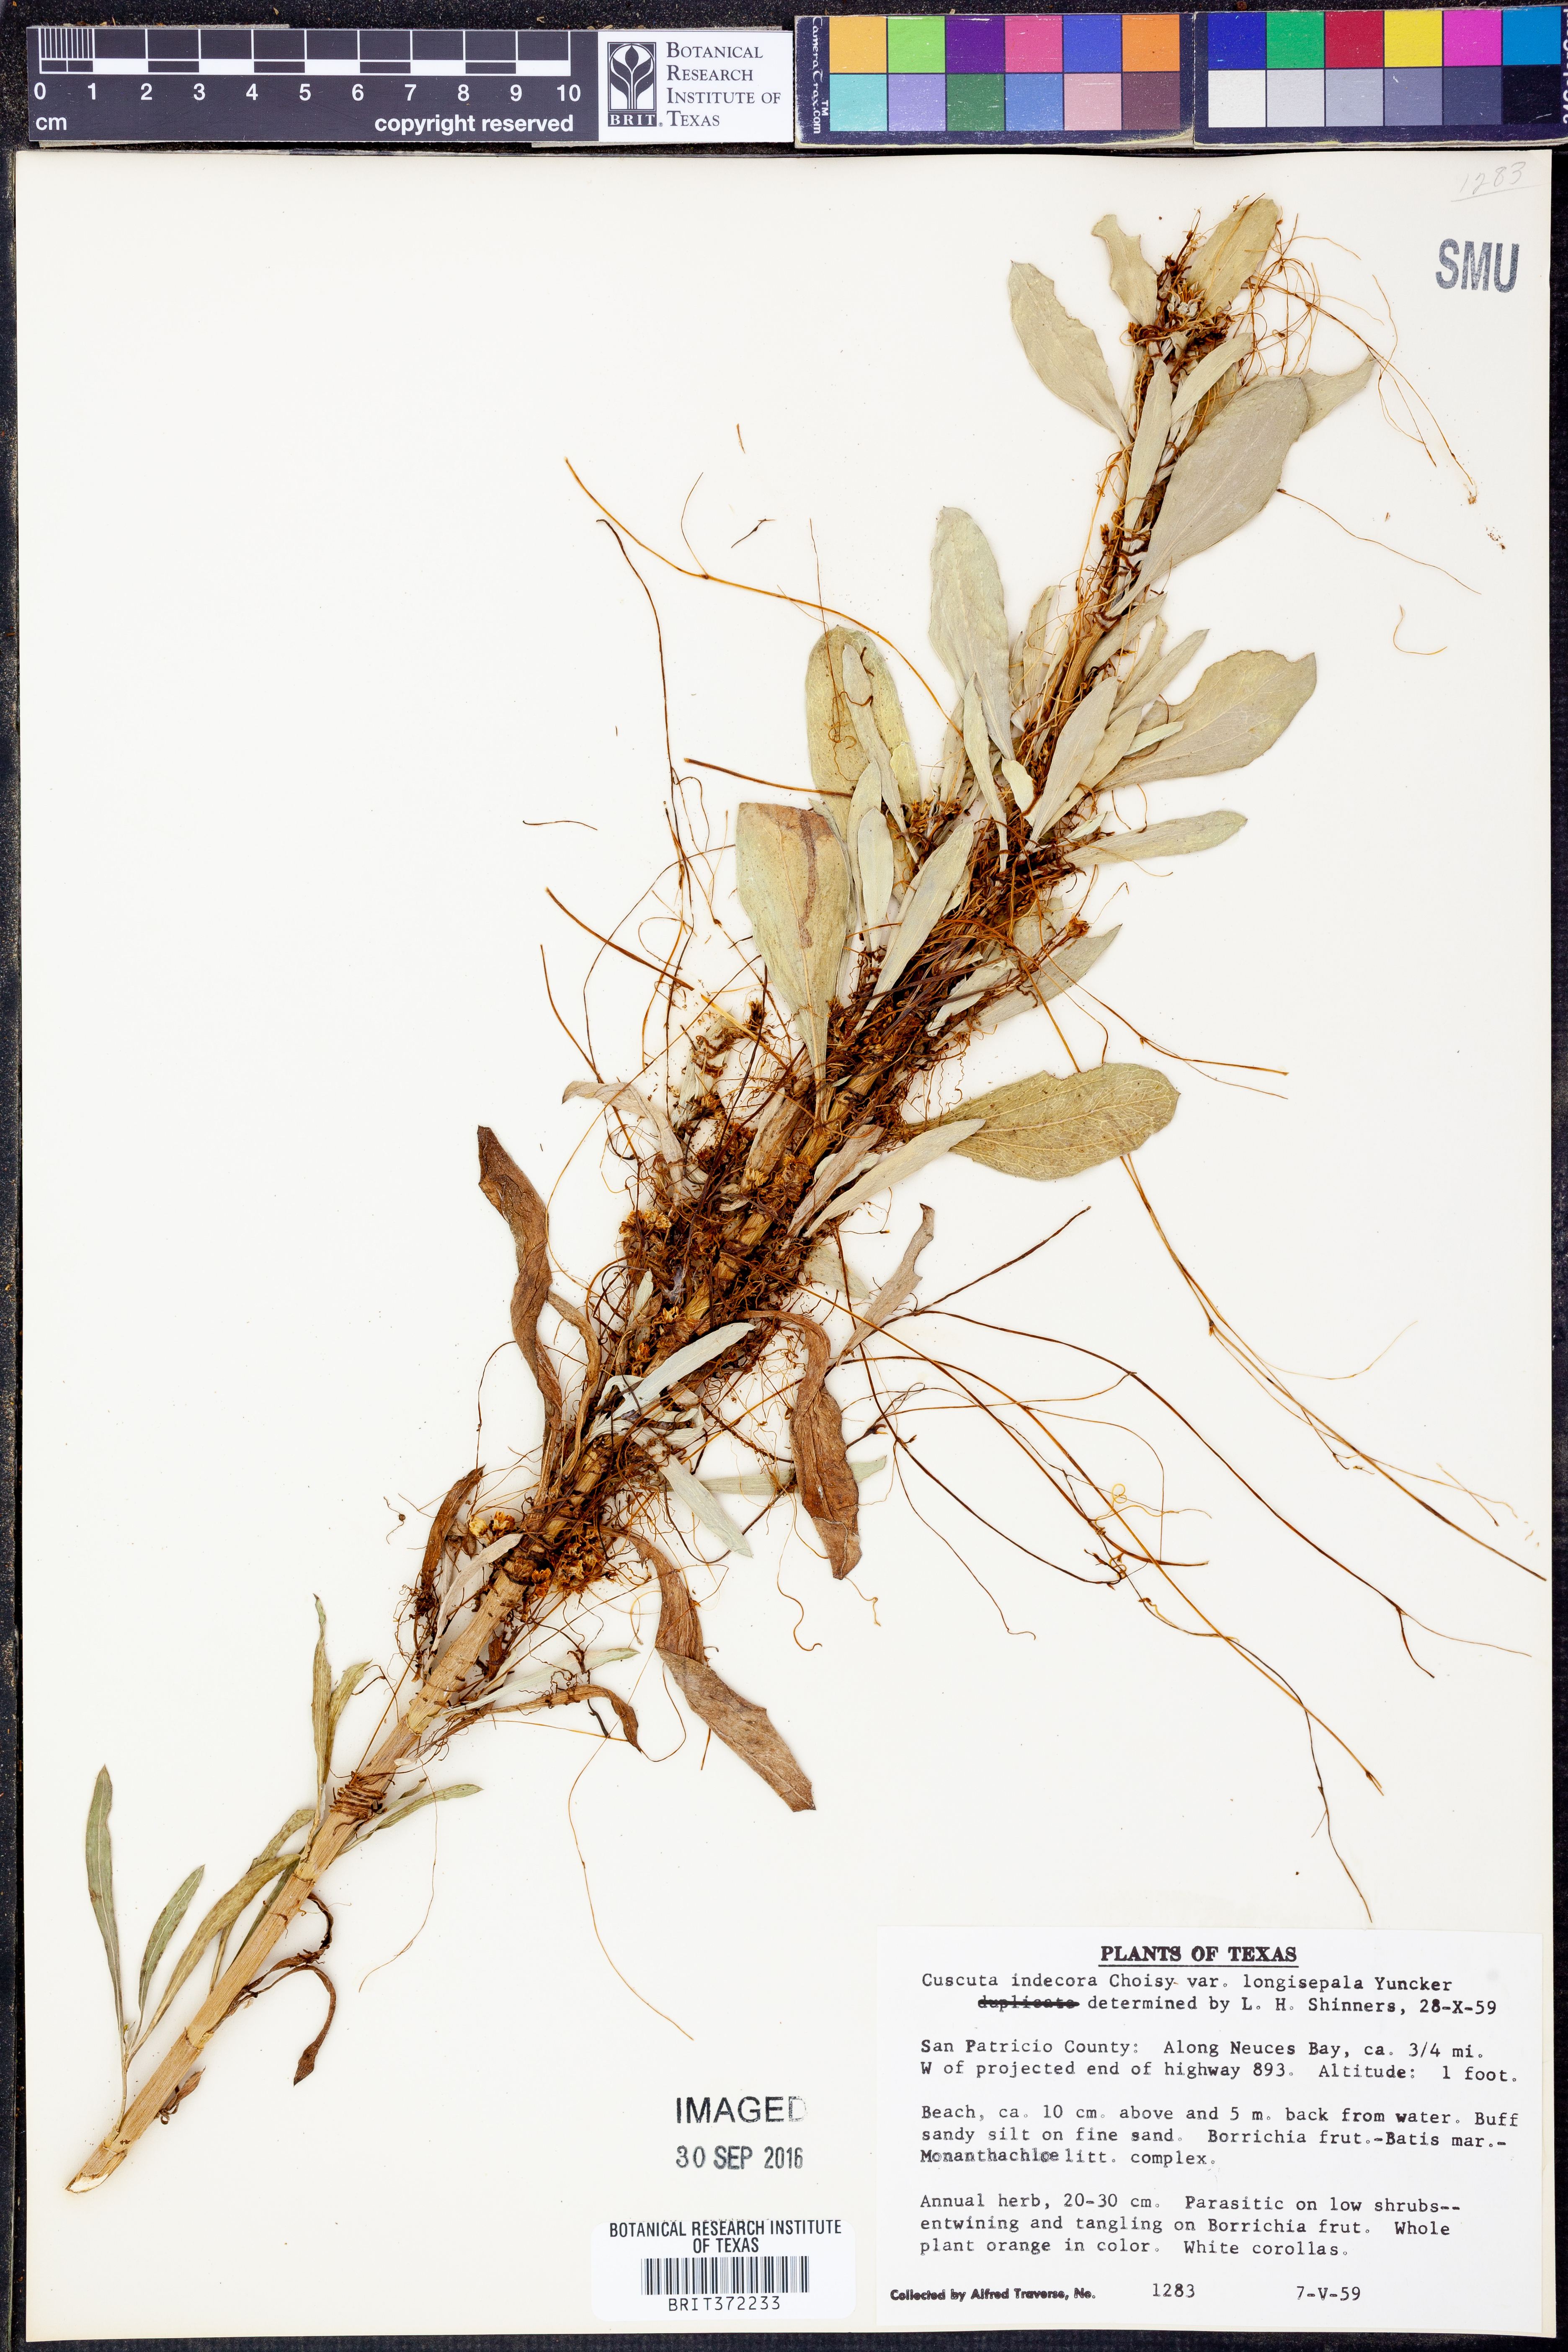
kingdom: Plantae
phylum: Tracheophyta
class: Magnoliopsida
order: Solanales
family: Convolvulaceae
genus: Cuscuta
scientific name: Cuscuta indecora
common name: Large-seed dodder
